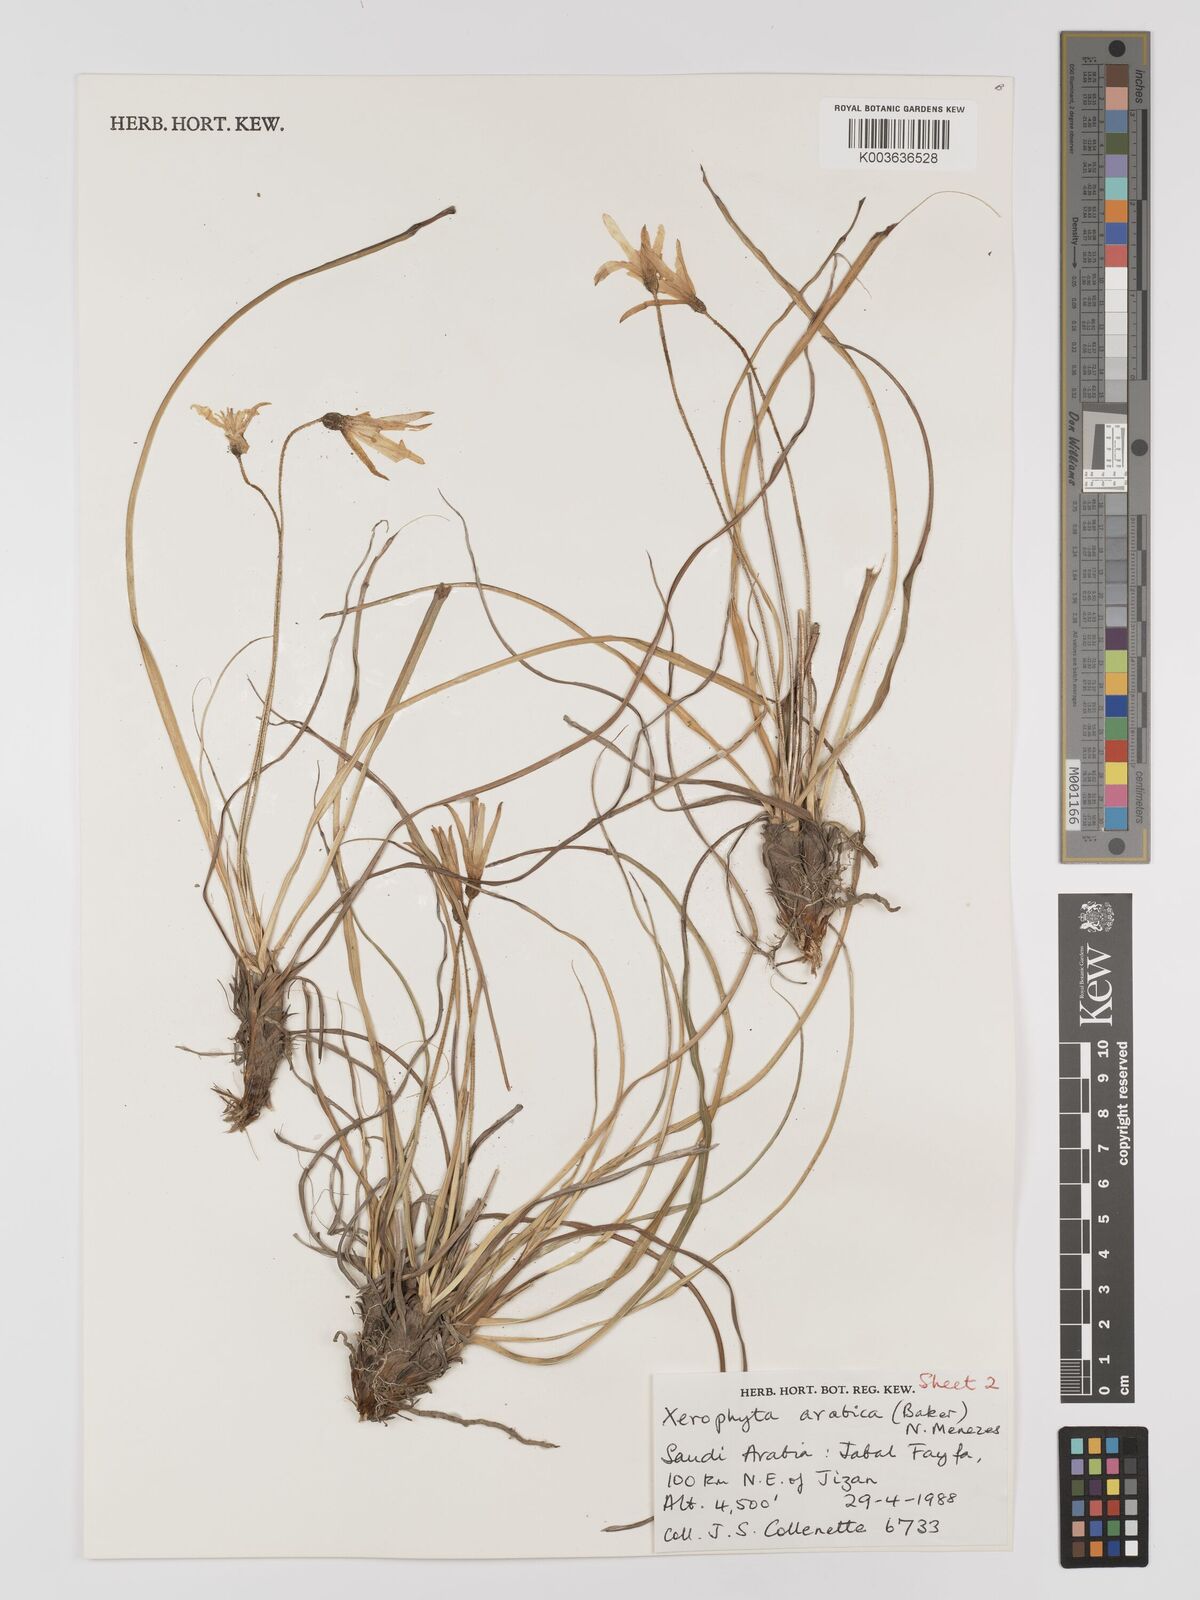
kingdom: Plantae
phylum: Tracheophyta
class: Liliopsida
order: Pandanales
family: Velloziaceae
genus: Xerophyta
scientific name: Xerophyta arabica
